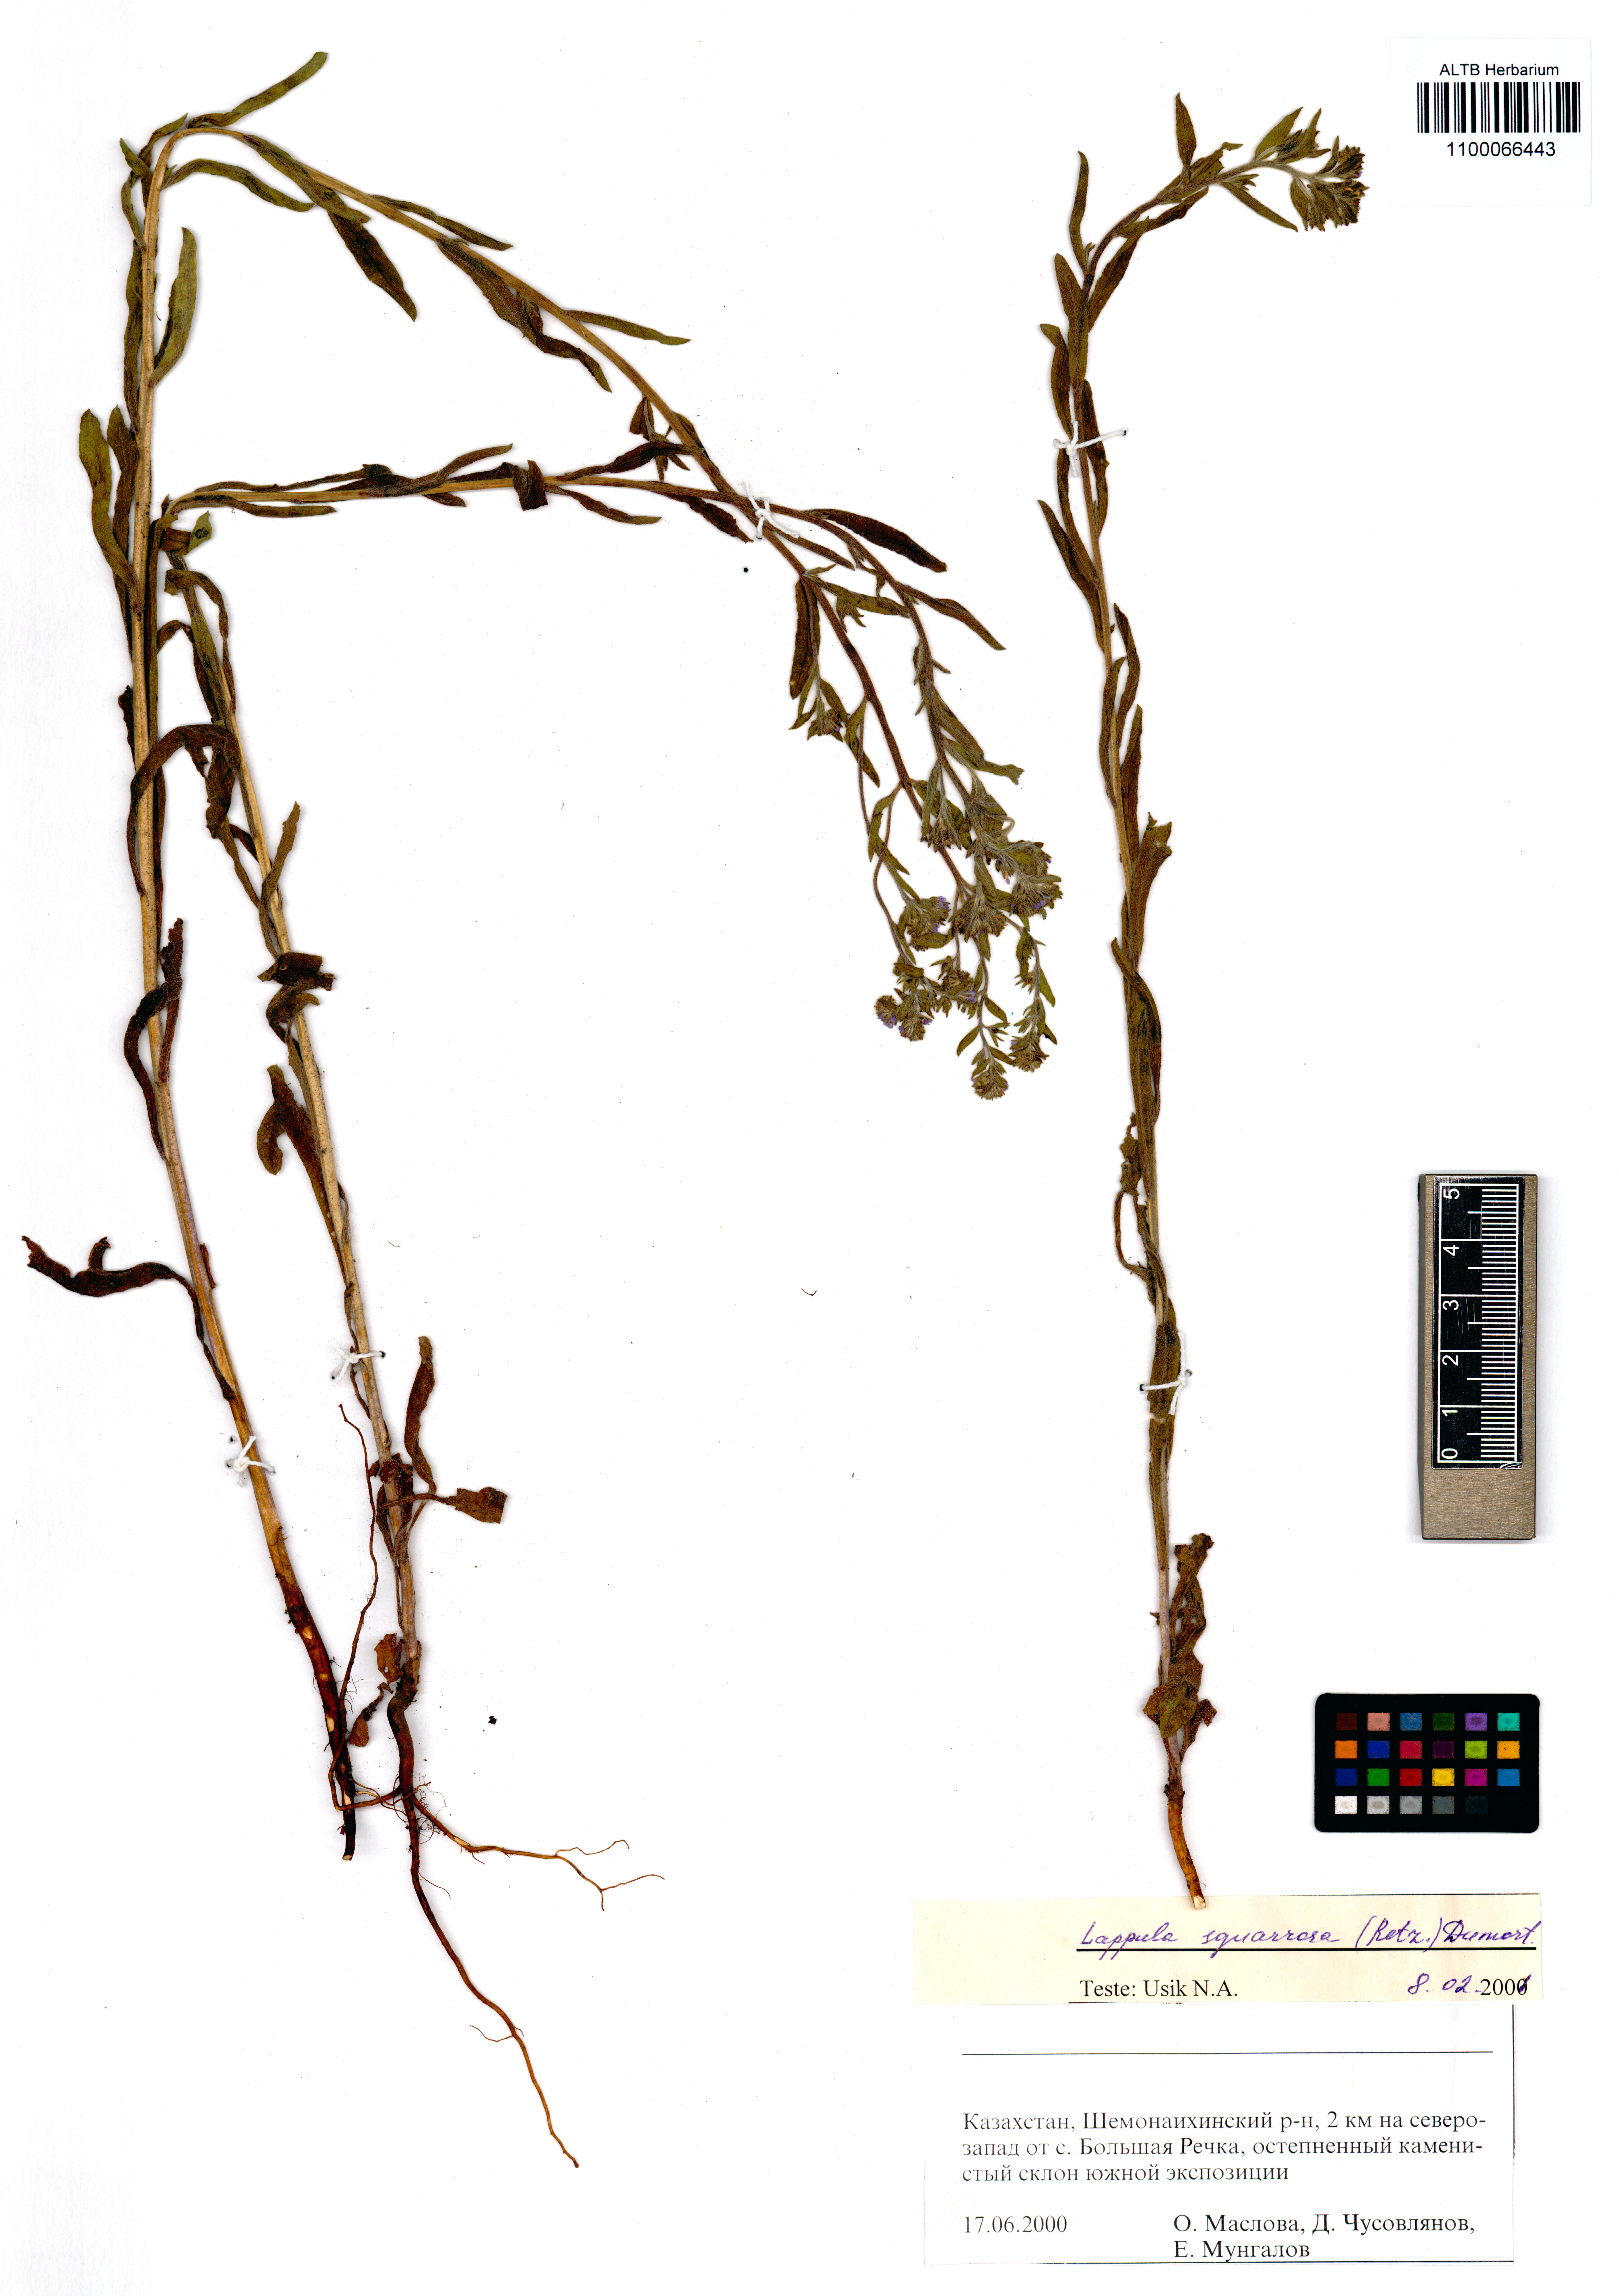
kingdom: Plantae
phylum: Tracheophyta
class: Magnoliopsida
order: Boraginales
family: Boraginaceae
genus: Lappula
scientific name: Lappula squarrosa
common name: European stickseed
